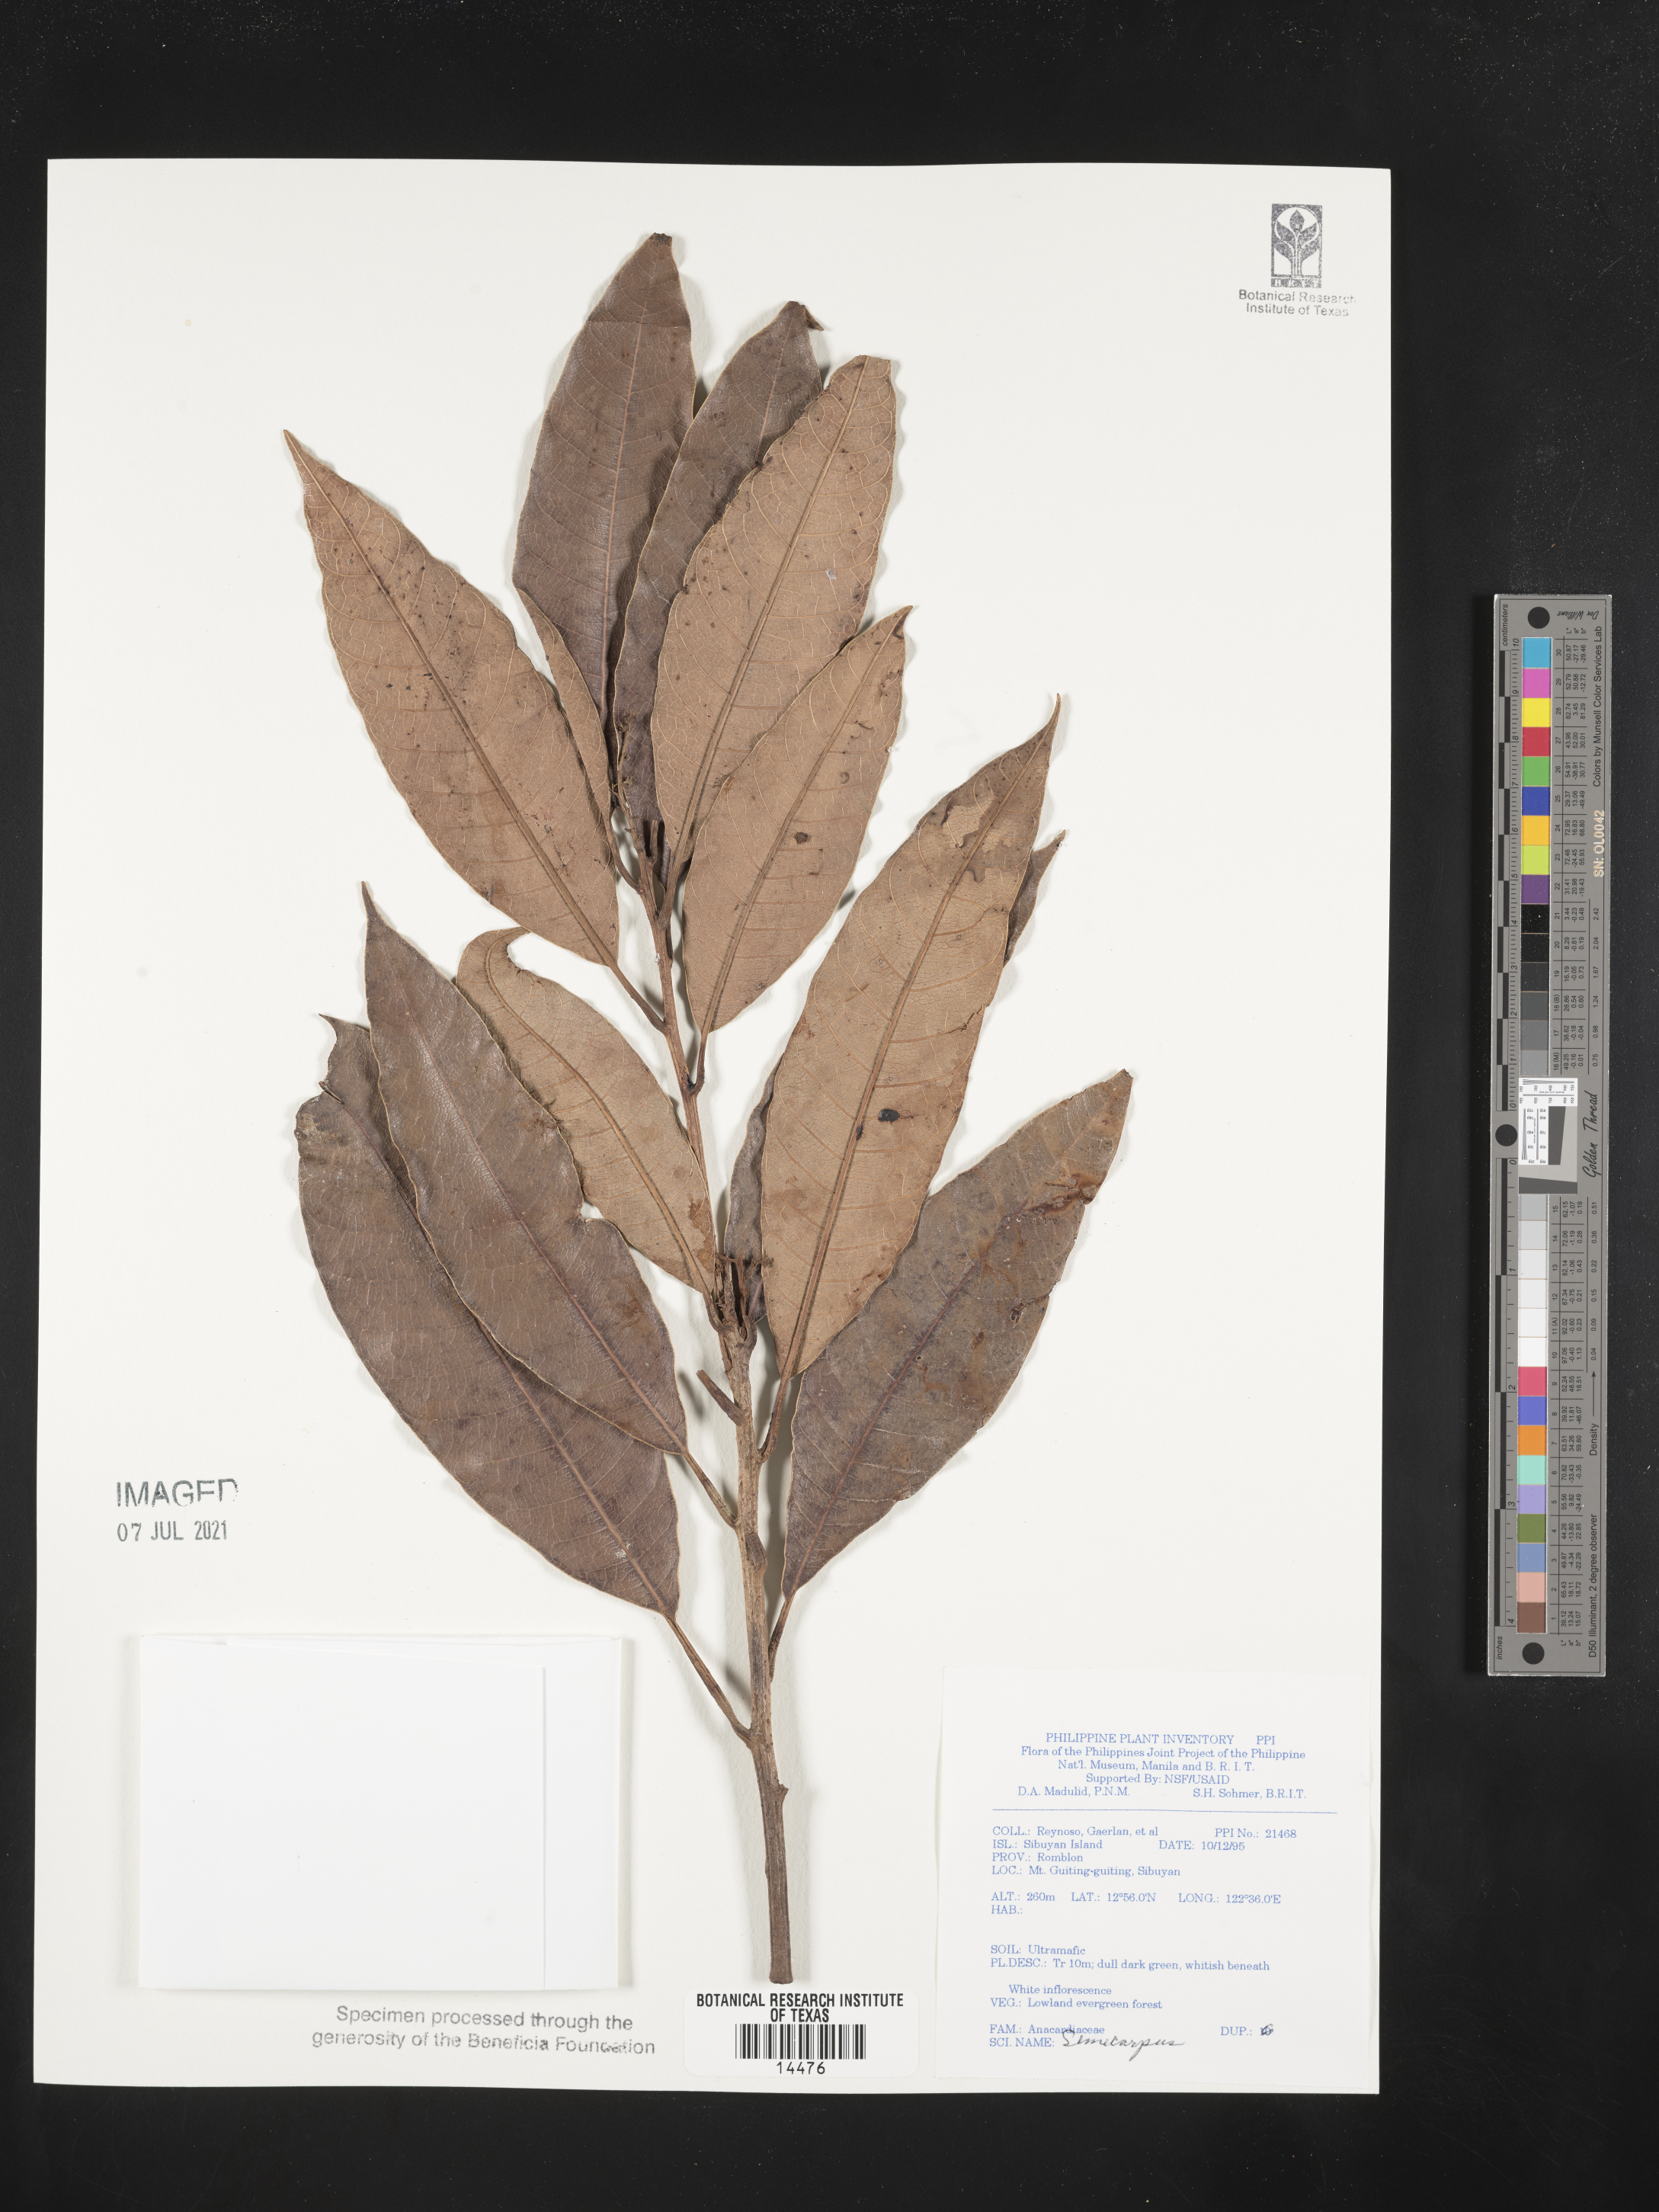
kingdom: Plantae
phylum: Tracheophyta
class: Magnoliopsida
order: Sapindales
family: Anacardiaceae
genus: Semecarpus
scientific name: Semecarpus
